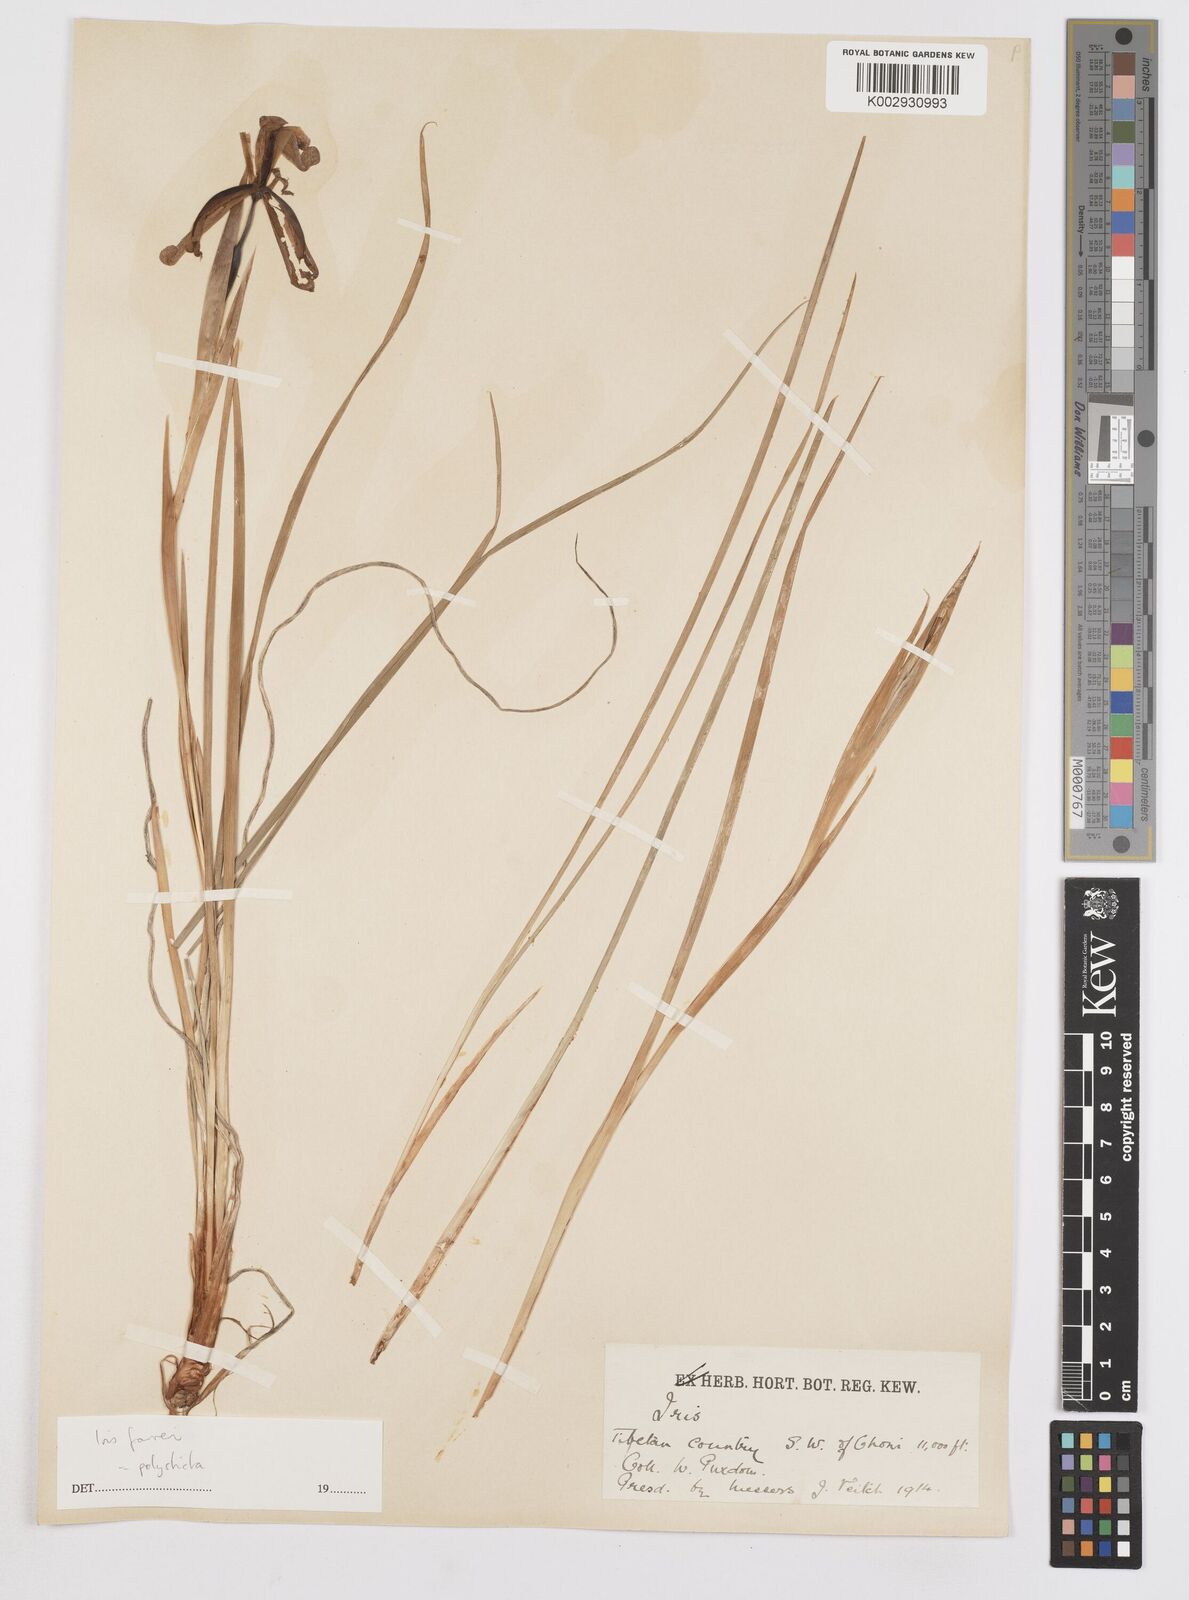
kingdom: Plantae
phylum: Tracheophyta
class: Liliopsida
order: Asparagales
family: Iridaceae
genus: Iris
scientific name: Iris farreri
